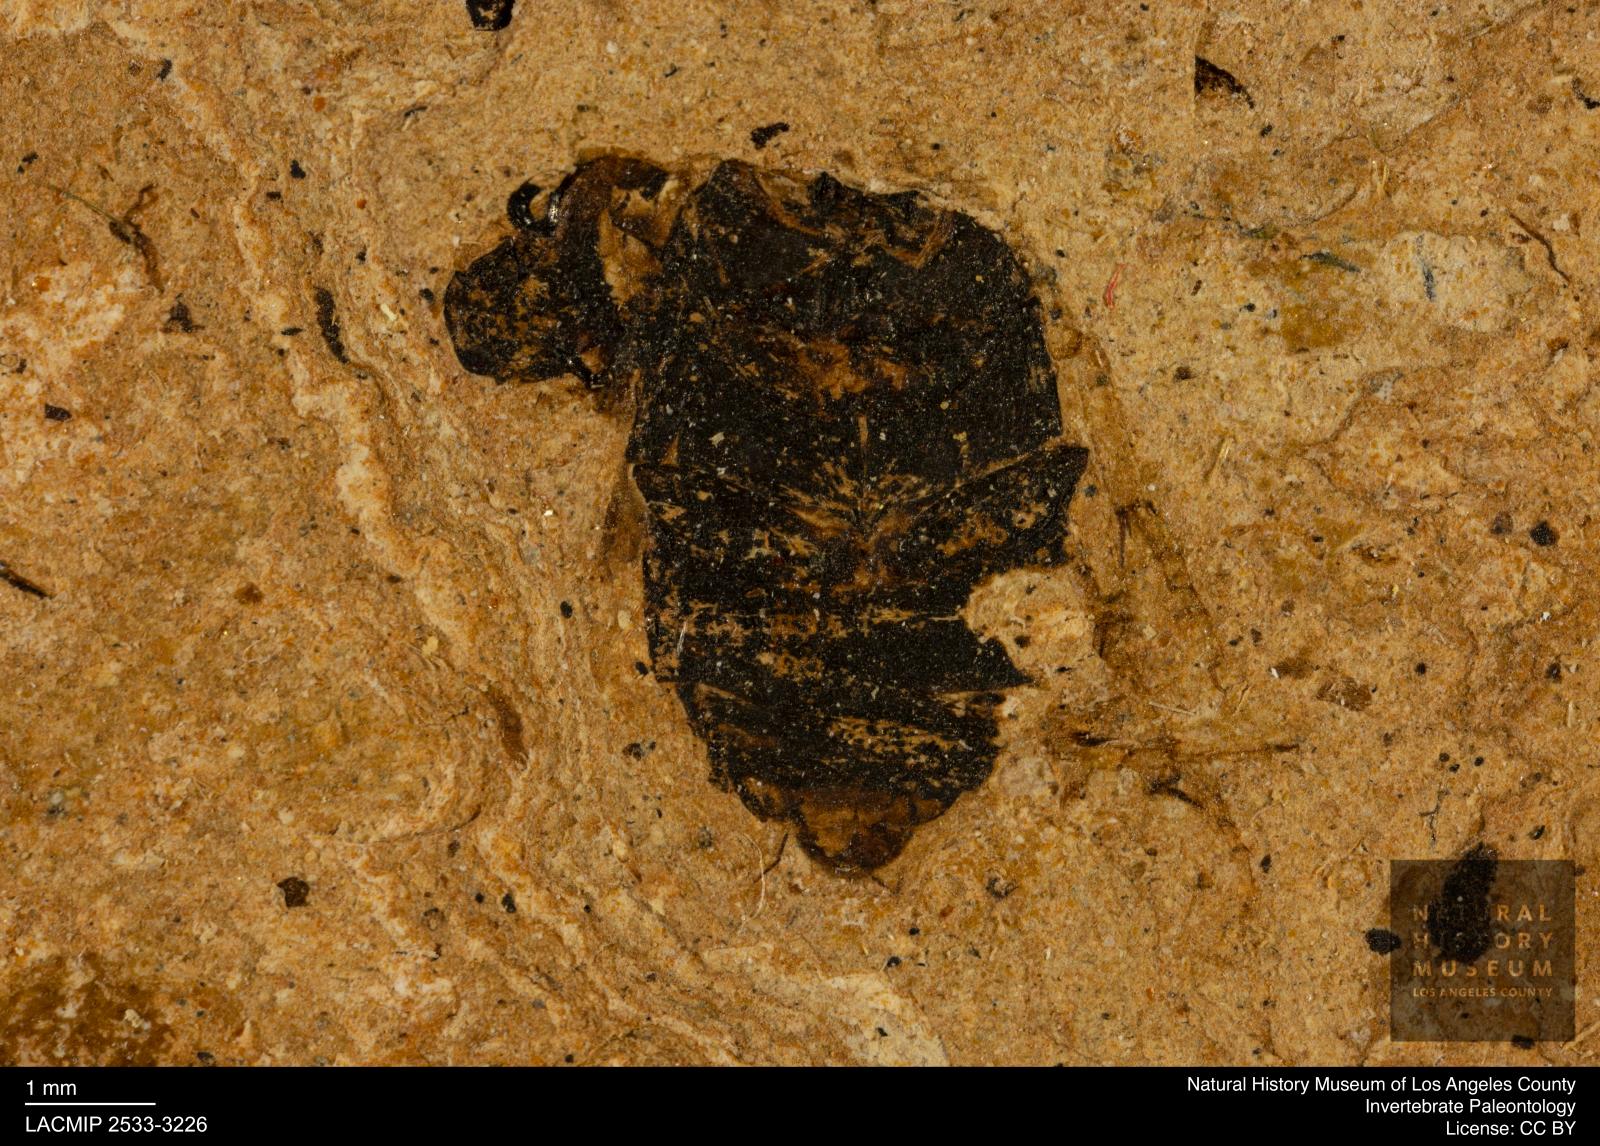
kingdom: Animalia
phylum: Arthropoda
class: Insecta
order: Coleoptera
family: Hydrophilidae
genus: Berosus
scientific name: Berosus
